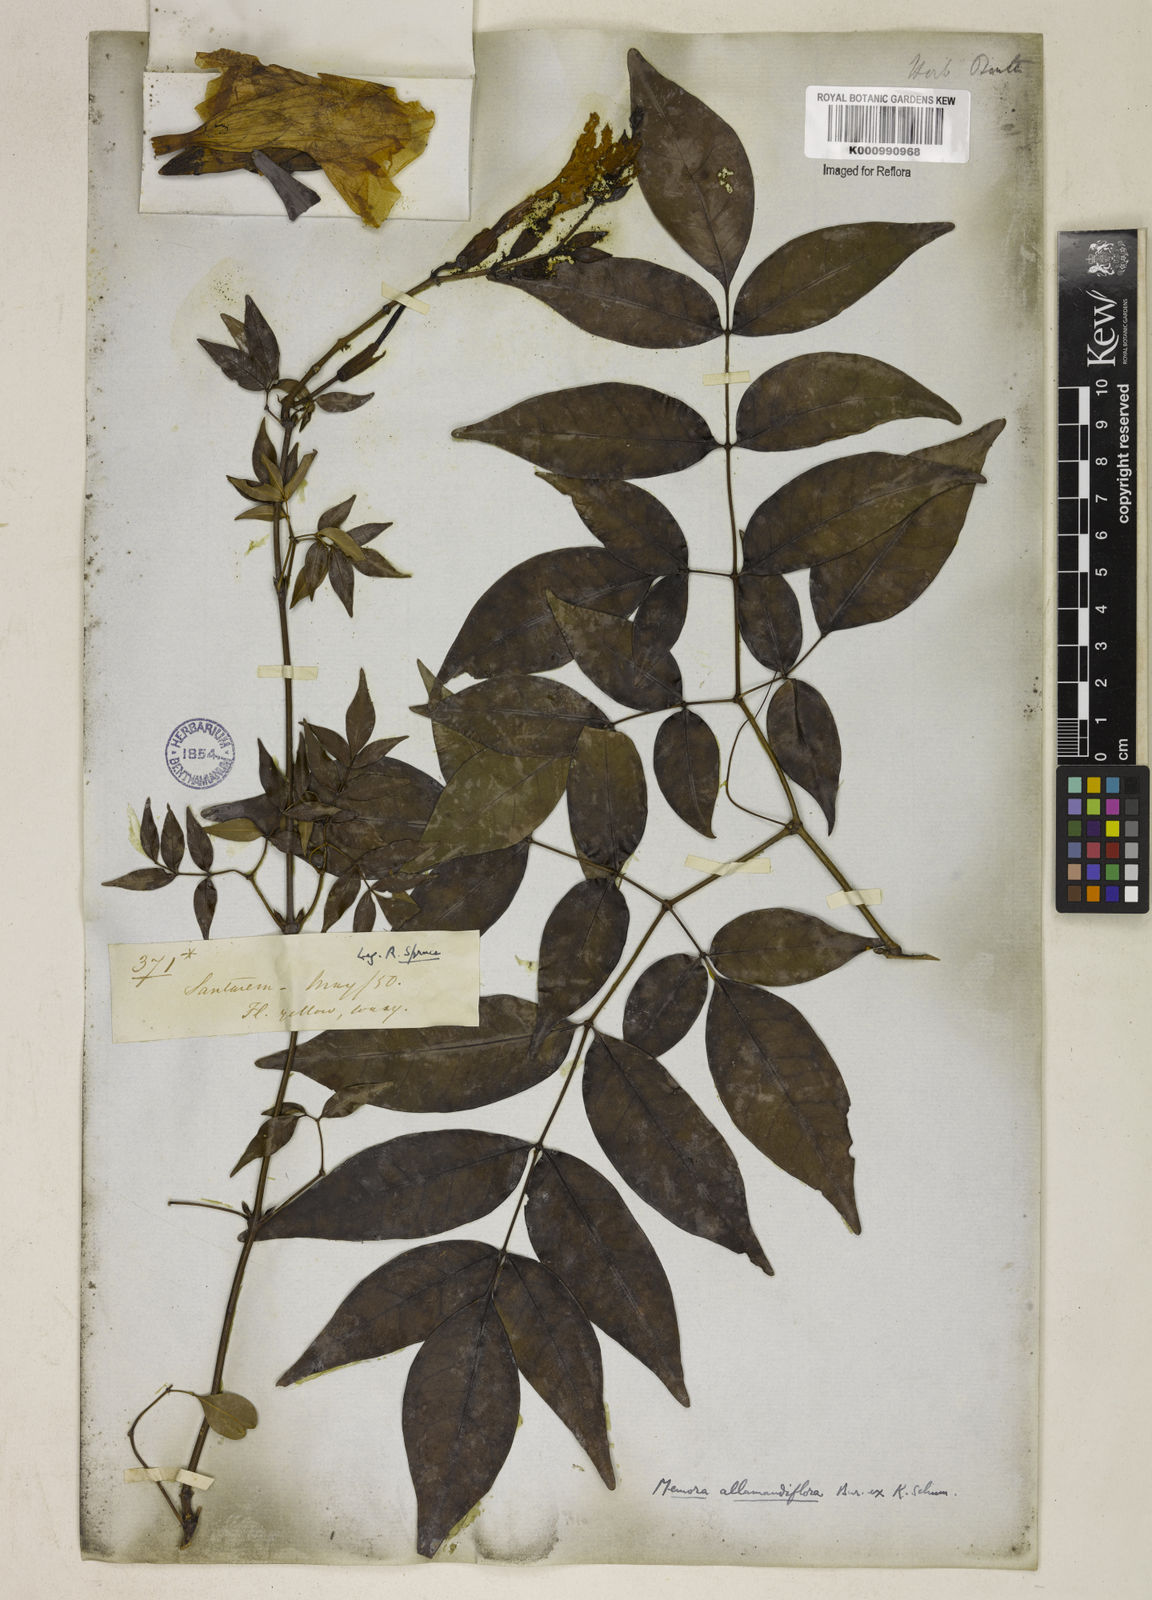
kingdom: Plantae
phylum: Tracheophyta
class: Magnoliopsida
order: Lamiales
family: Bignoniaceae
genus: Adenocalymma
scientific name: Adenocalymma
